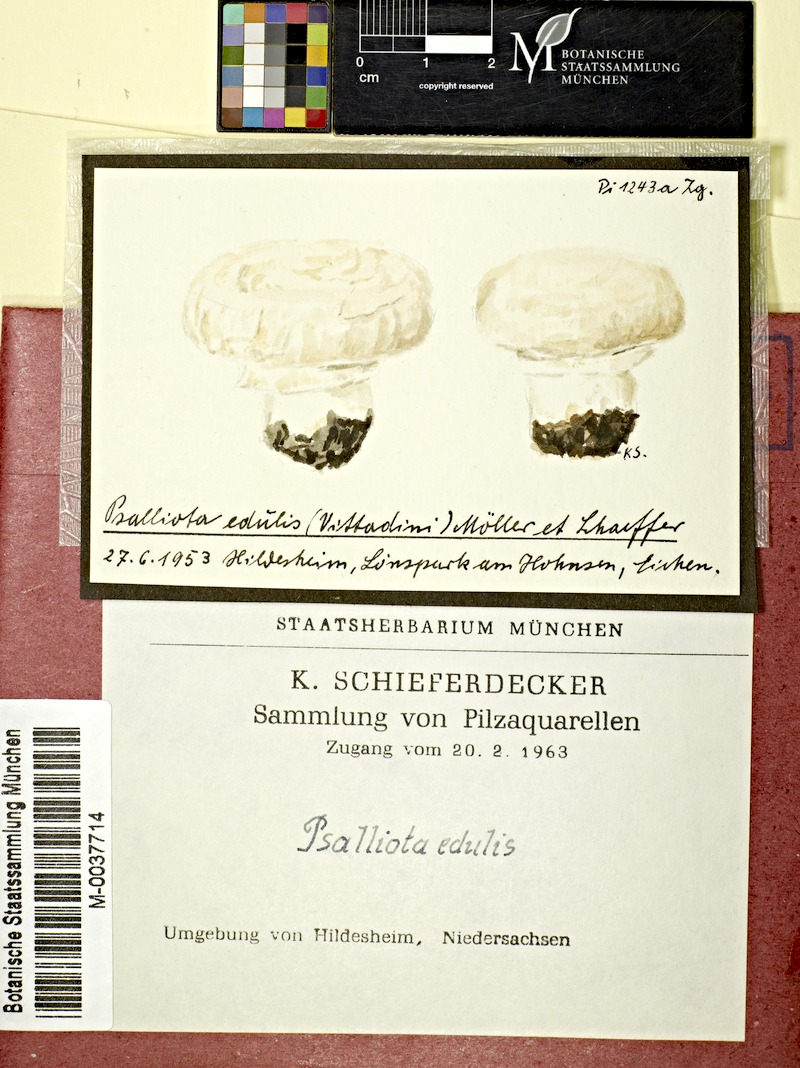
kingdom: Fungi
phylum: Basidiomycota
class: Agaricomycetes
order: Agaricales
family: Agaricaceae
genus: Agaricus
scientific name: Agaricus bitorquis
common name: Pavement mushroom
